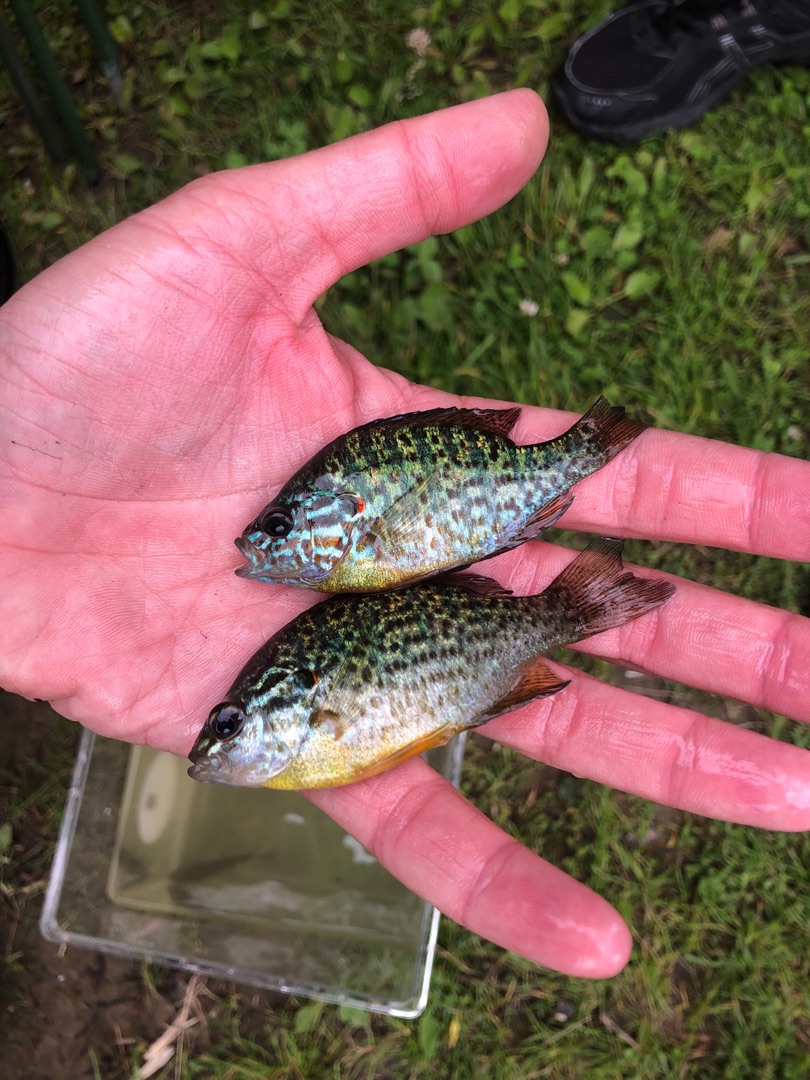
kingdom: Animalia
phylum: Chordata
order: Perciformes
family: Centrarchidae
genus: Lepomis
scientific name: Lepomis gibbosus
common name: Almindelig solaborre
